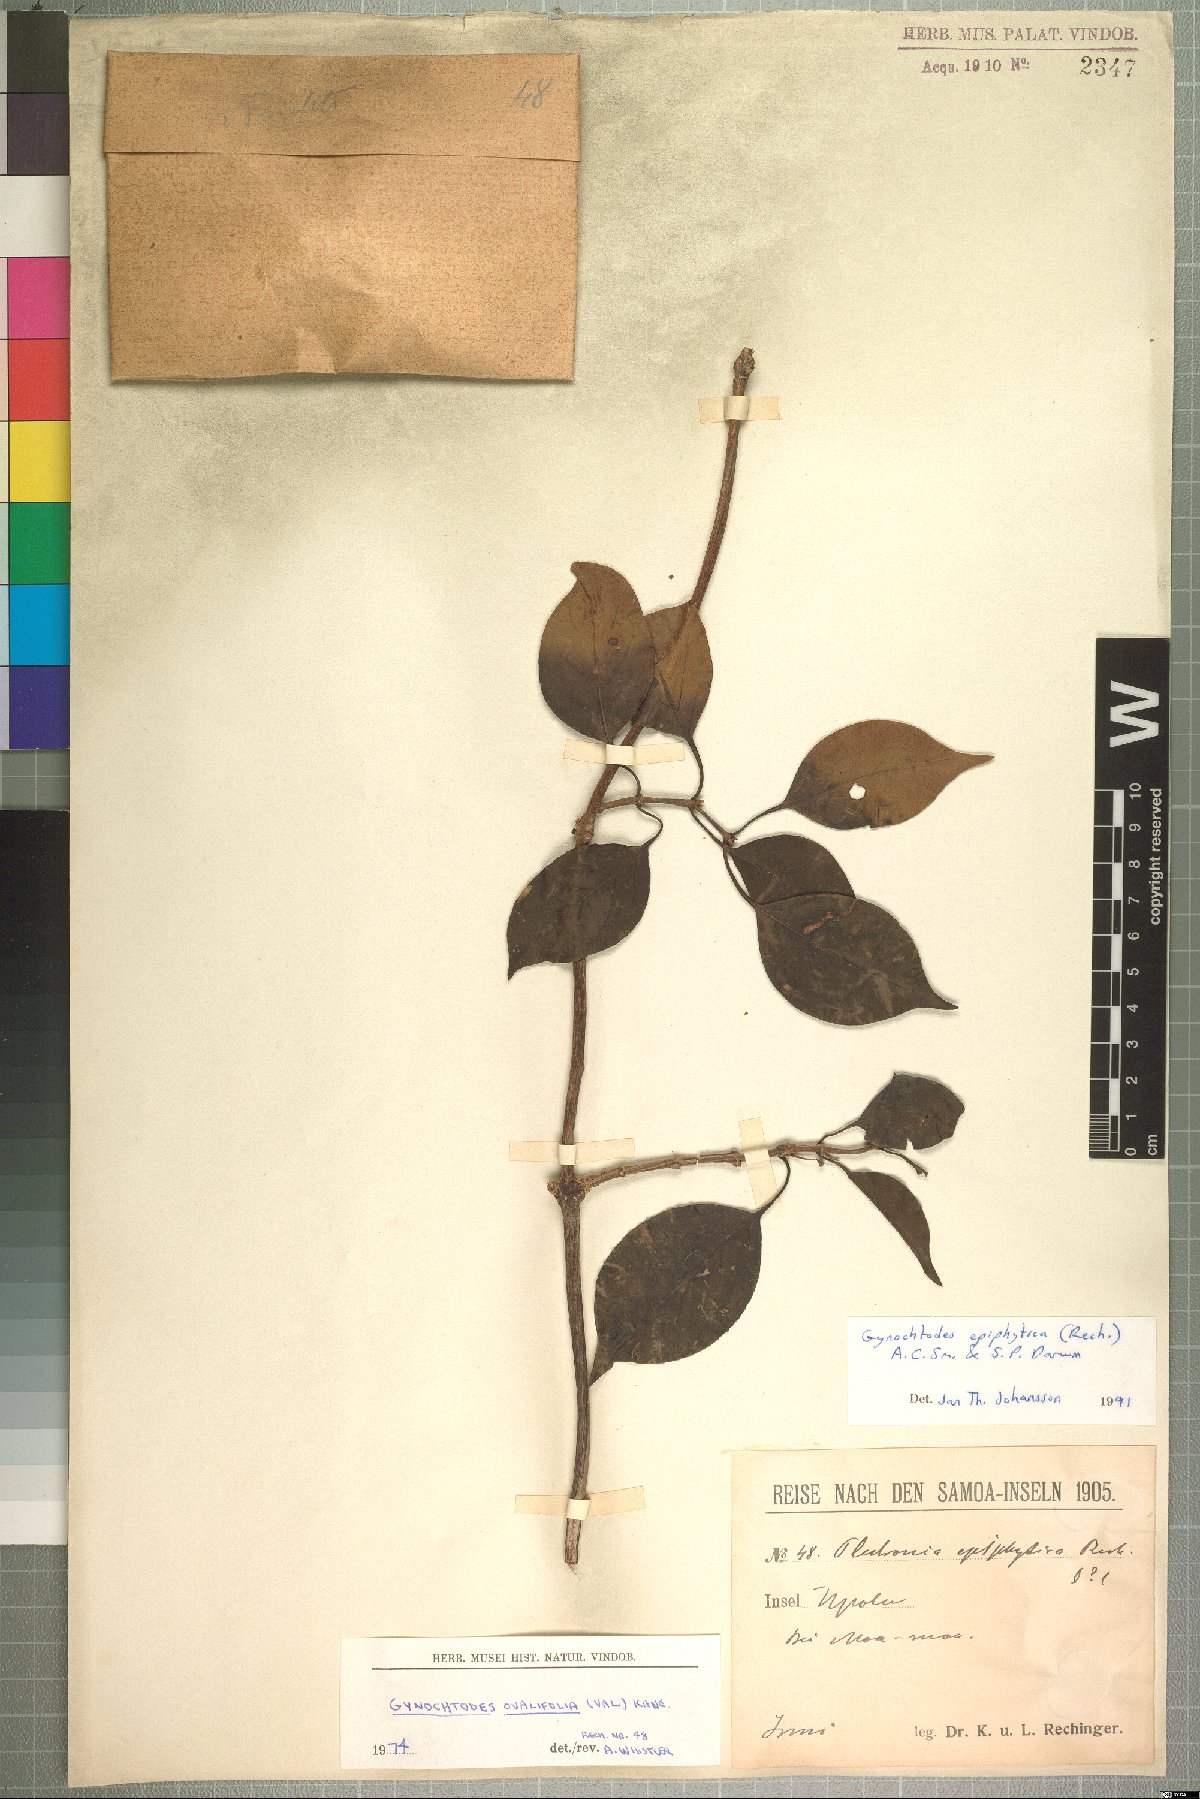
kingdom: Plantae
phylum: Tracheophyta
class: Magnoliopsida
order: Gentianales
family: Rubiaceae
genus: Gynochthodes
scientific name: Gynochthodes epiphytica
